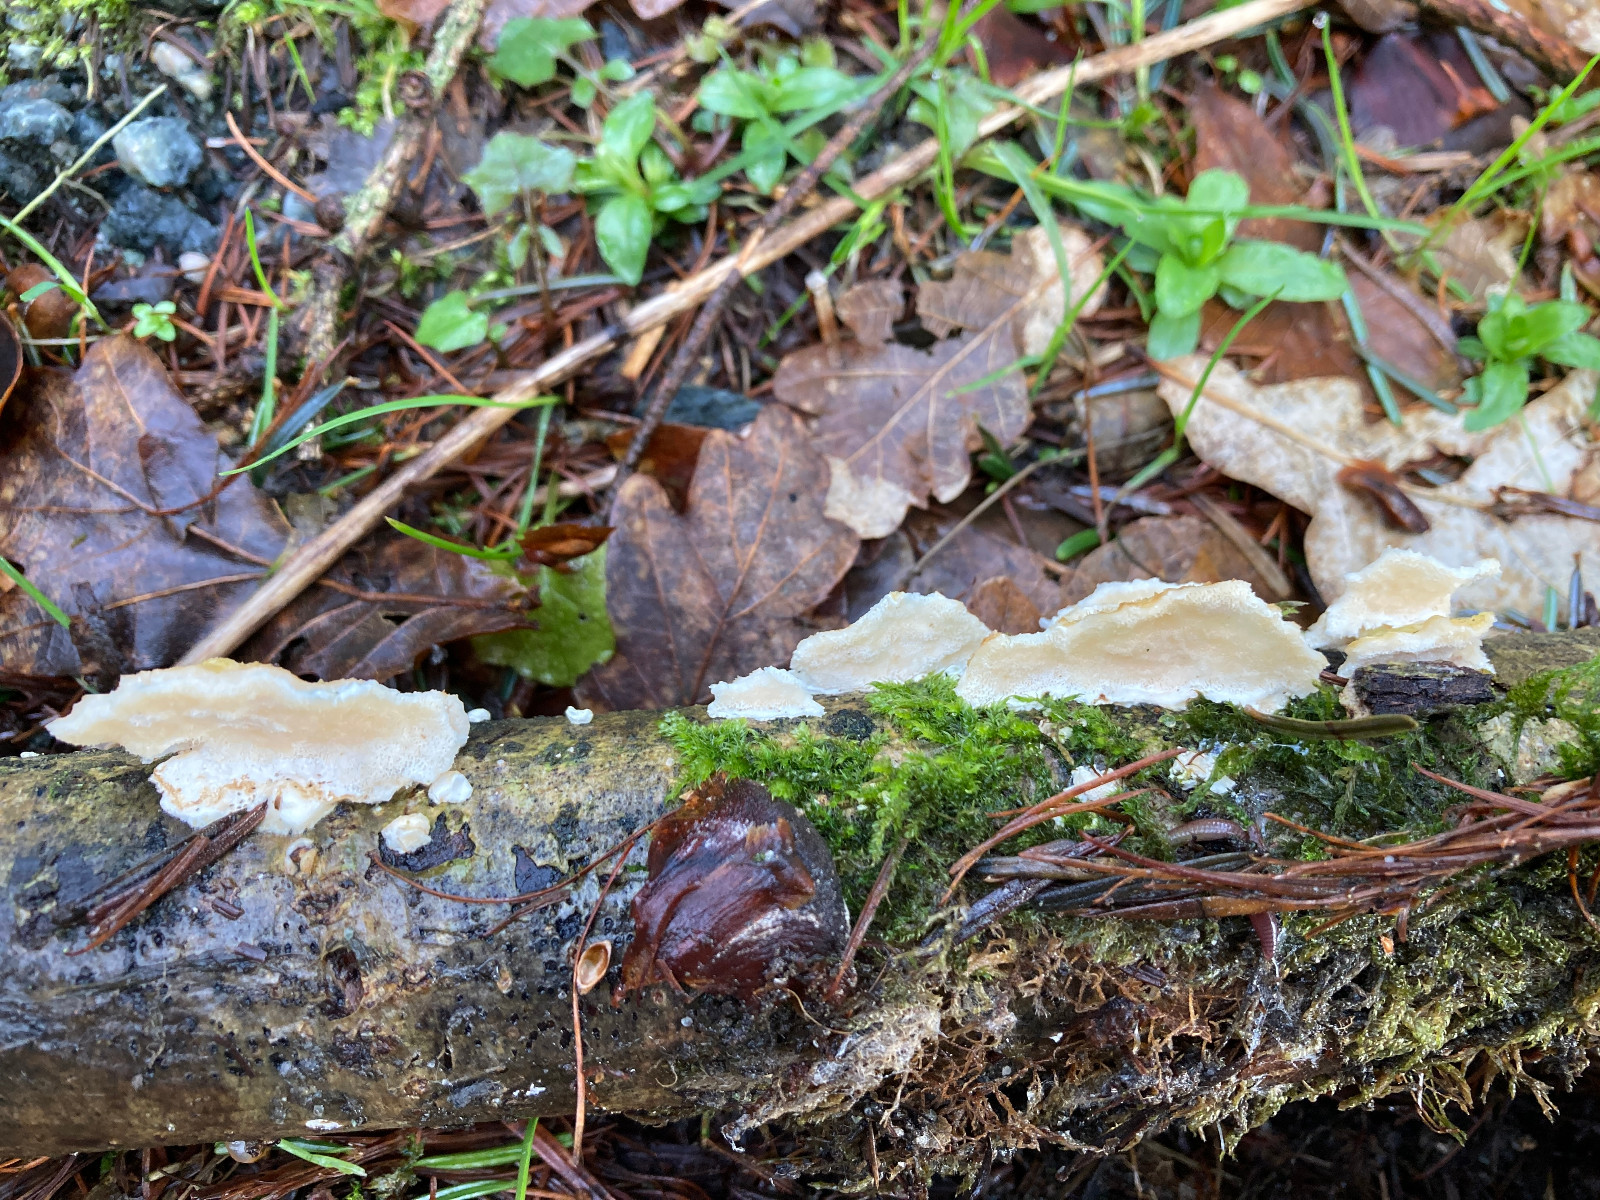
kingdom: Fungi
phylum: Basidiomycota
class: Agaricomycetes
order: Polyporales
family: Irpicaceae
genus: Byssomerulius
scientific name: Byssomerulius corium
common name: læder-åresvamp
